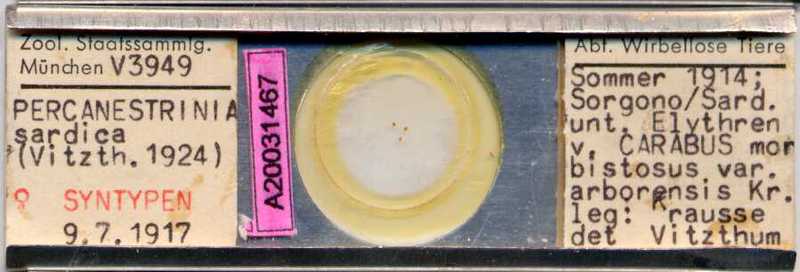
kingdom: Animalia
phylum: Arthropoda
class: Arachnida
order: Sarcoptiformes
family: Canestriniidae
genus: Canestrinia
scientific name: Canestrinia
